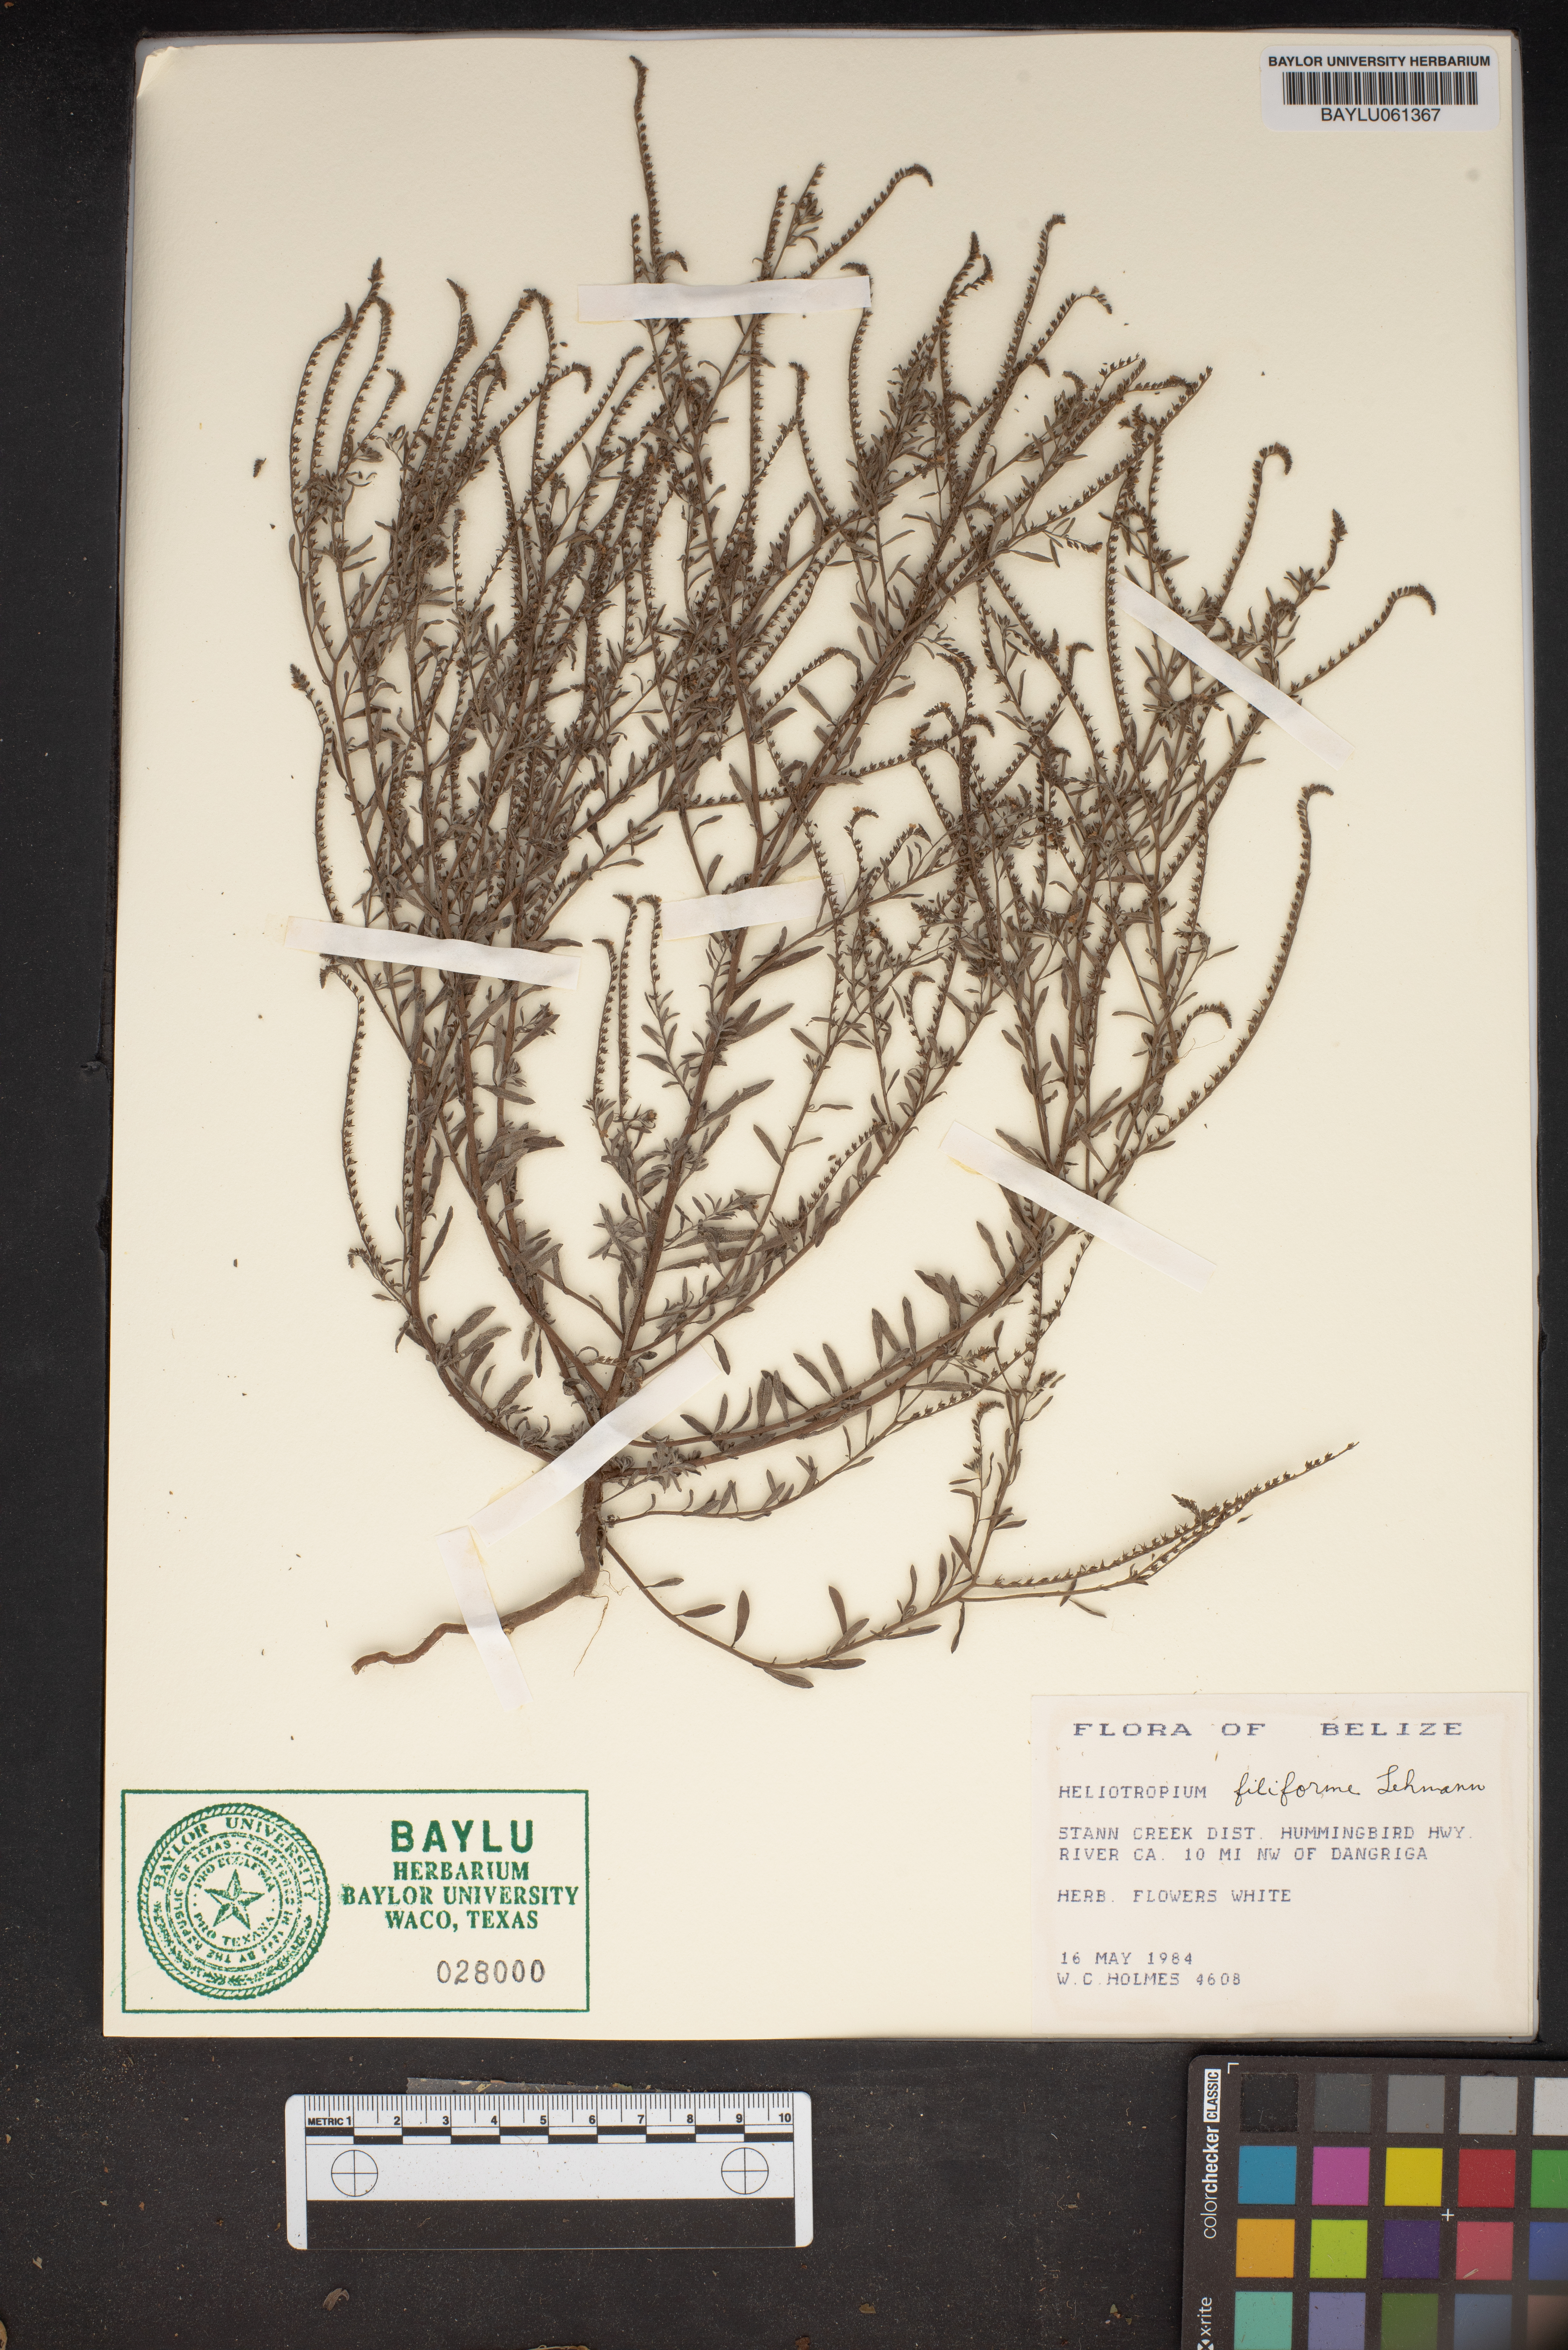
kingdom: Plantae
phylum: Tracheophyta
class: Magnoliopsida
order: Boraginales
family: Heliotropiaceae
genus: Euploca
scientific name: Euploca filiformis
